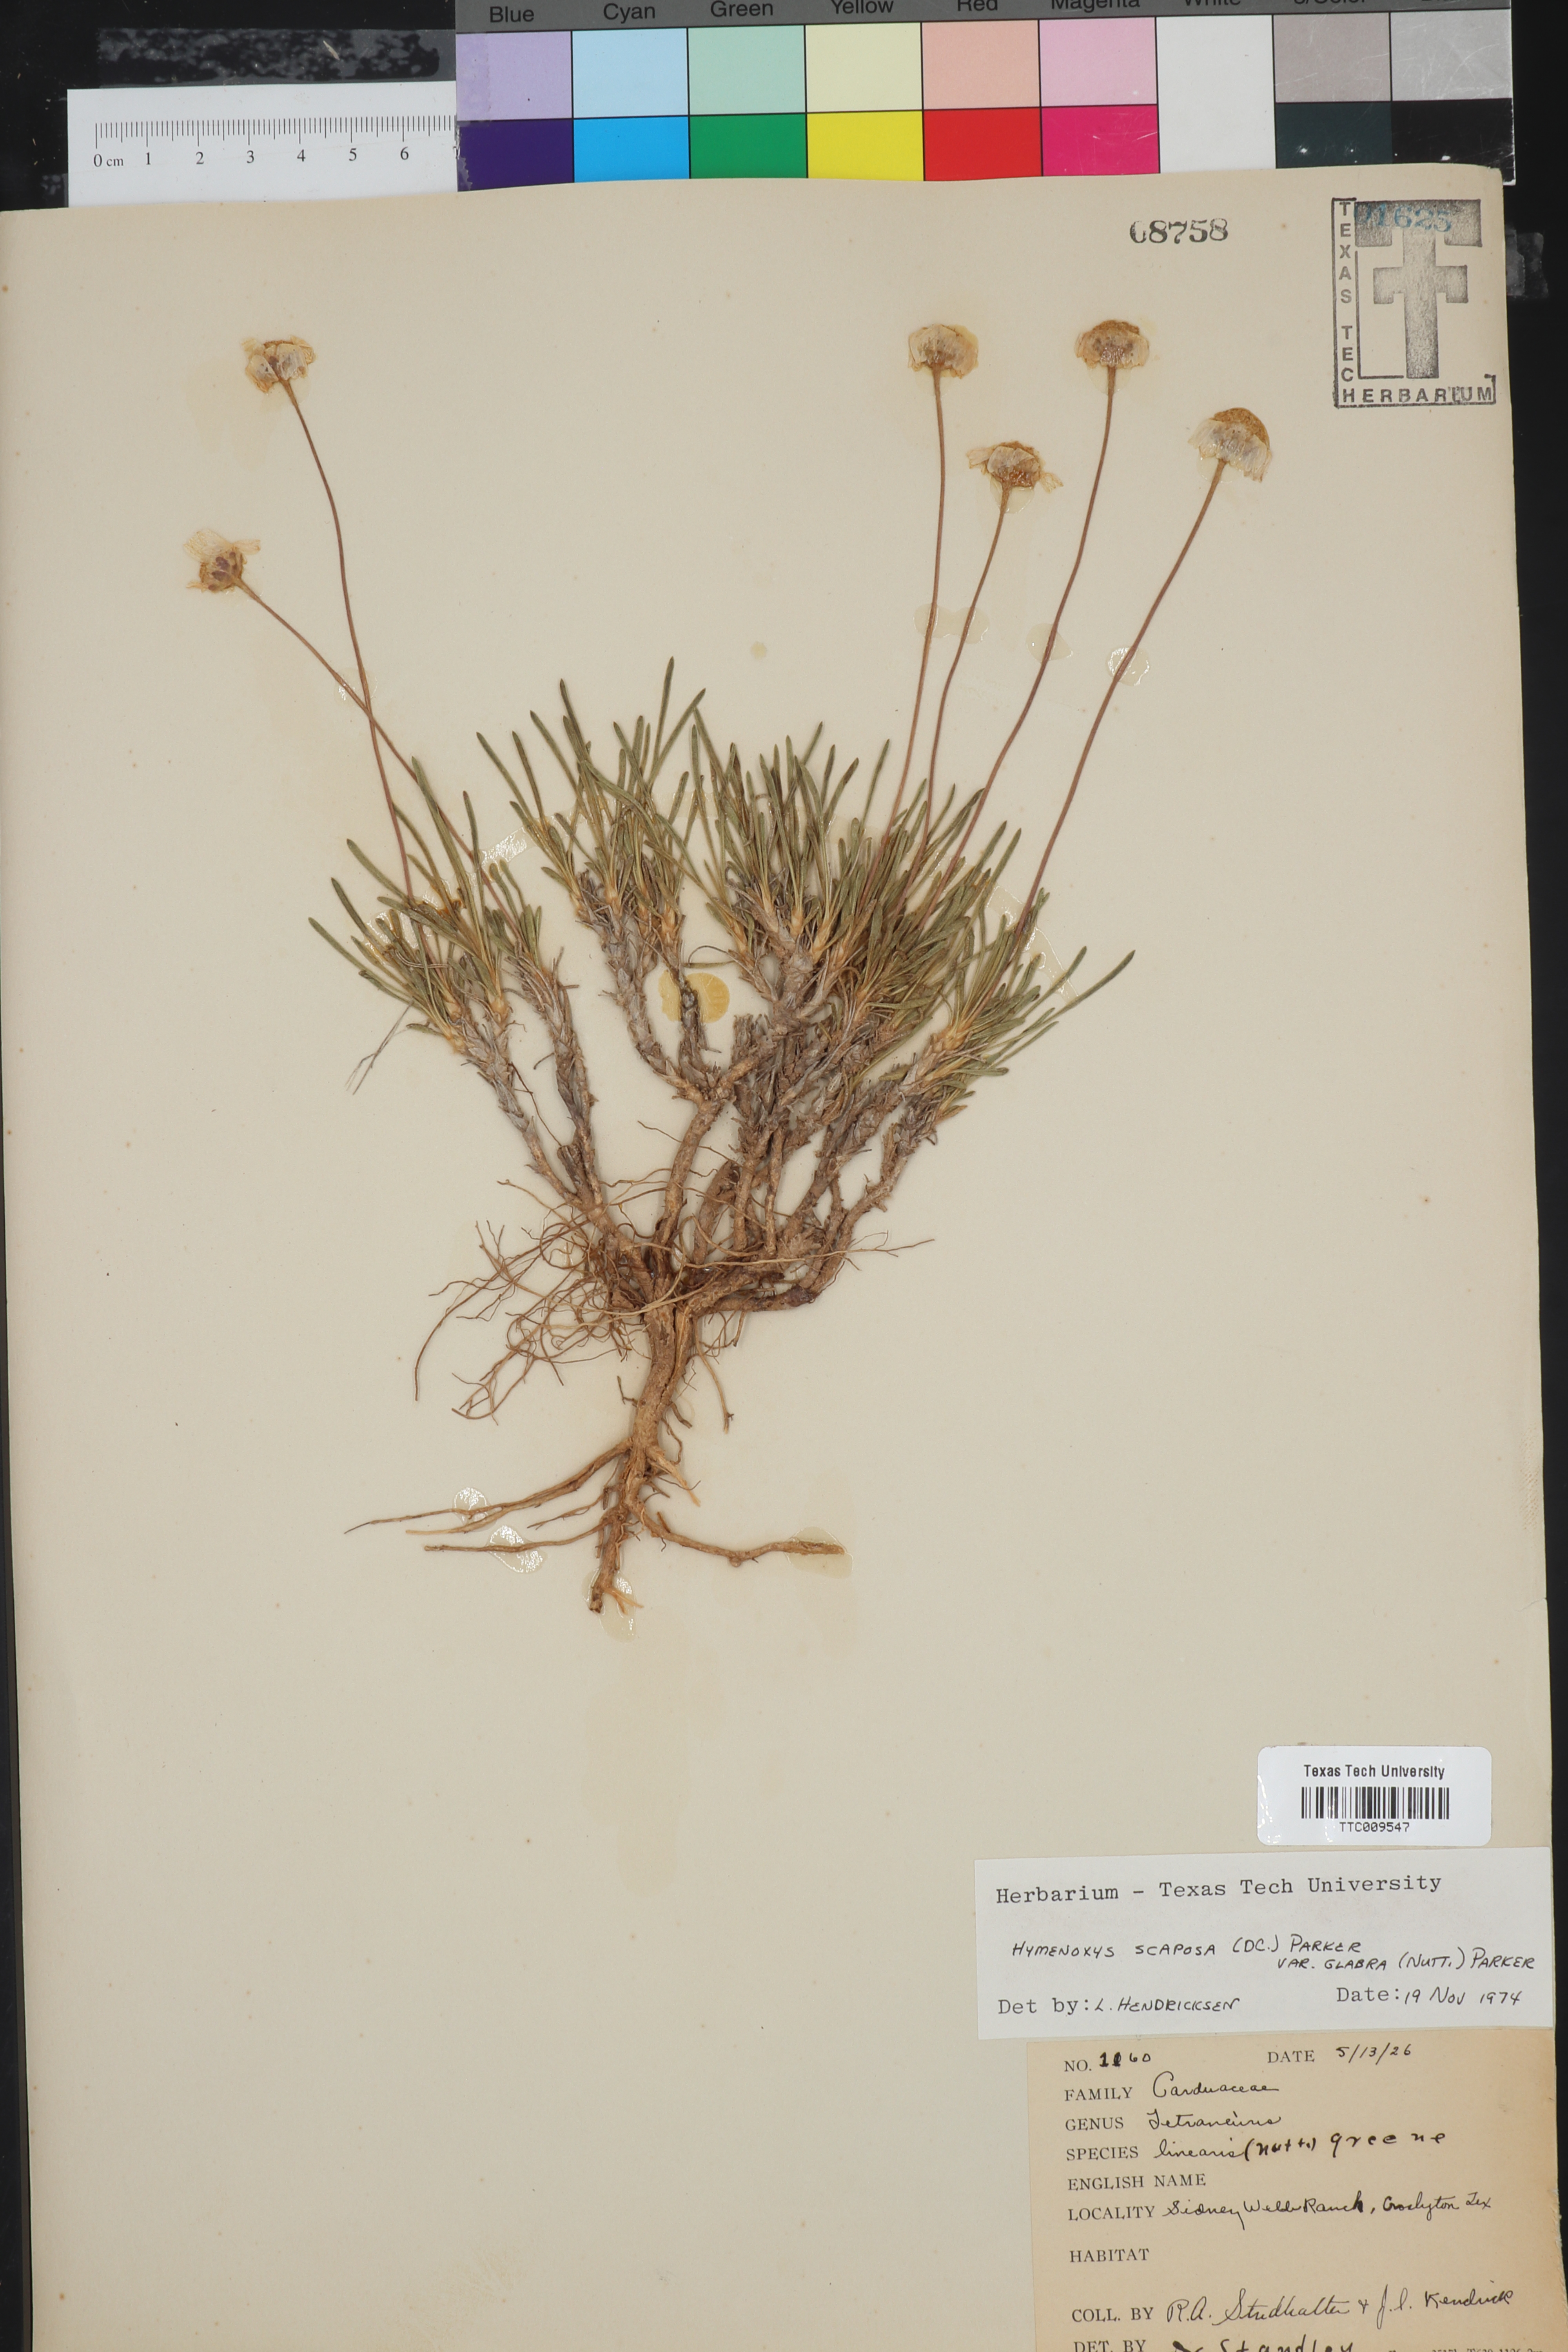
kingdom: Plantae
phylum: Tracheophyta
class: Magnoliopsida
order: Asterales
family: Asteraceae
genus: Tetraneuris
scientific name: Tetraneuris scaposa
